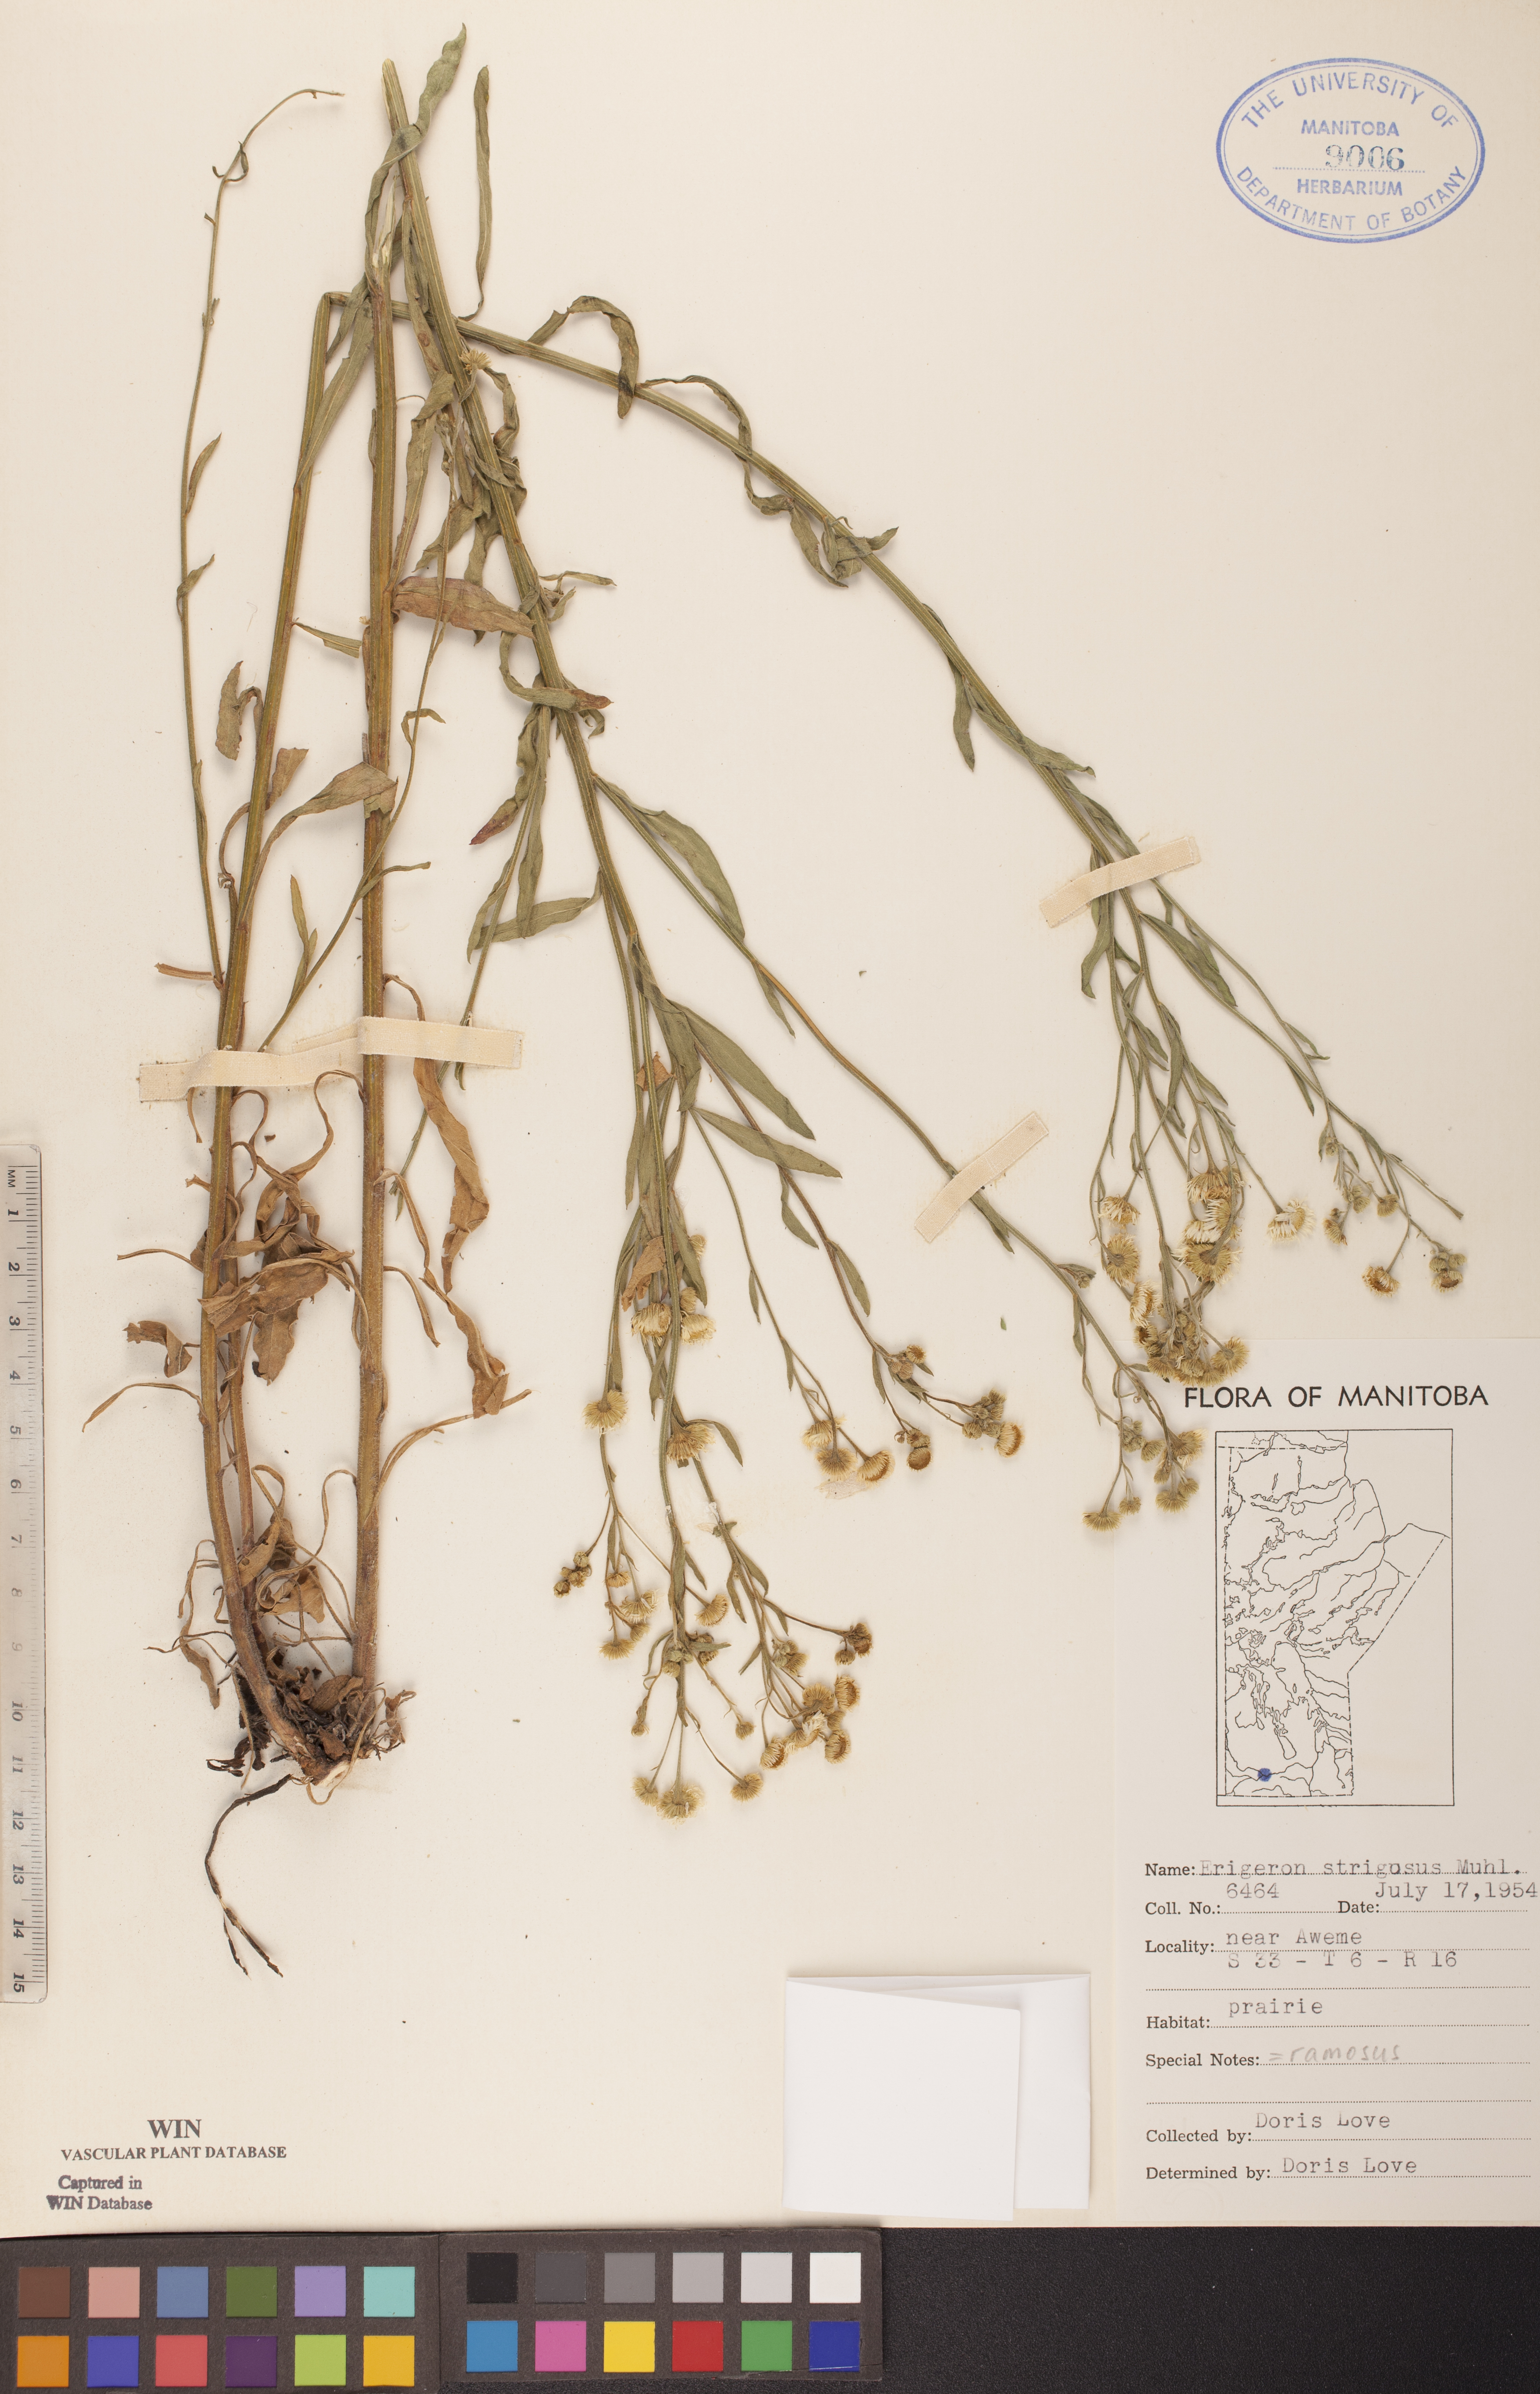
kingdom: Plantae
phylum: Tracheophyta
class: Magnoliopsida
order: Asterales
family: Asteraceae
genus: Erigeron
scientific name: Erigeron strigosus
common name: Common eastern fleabane
